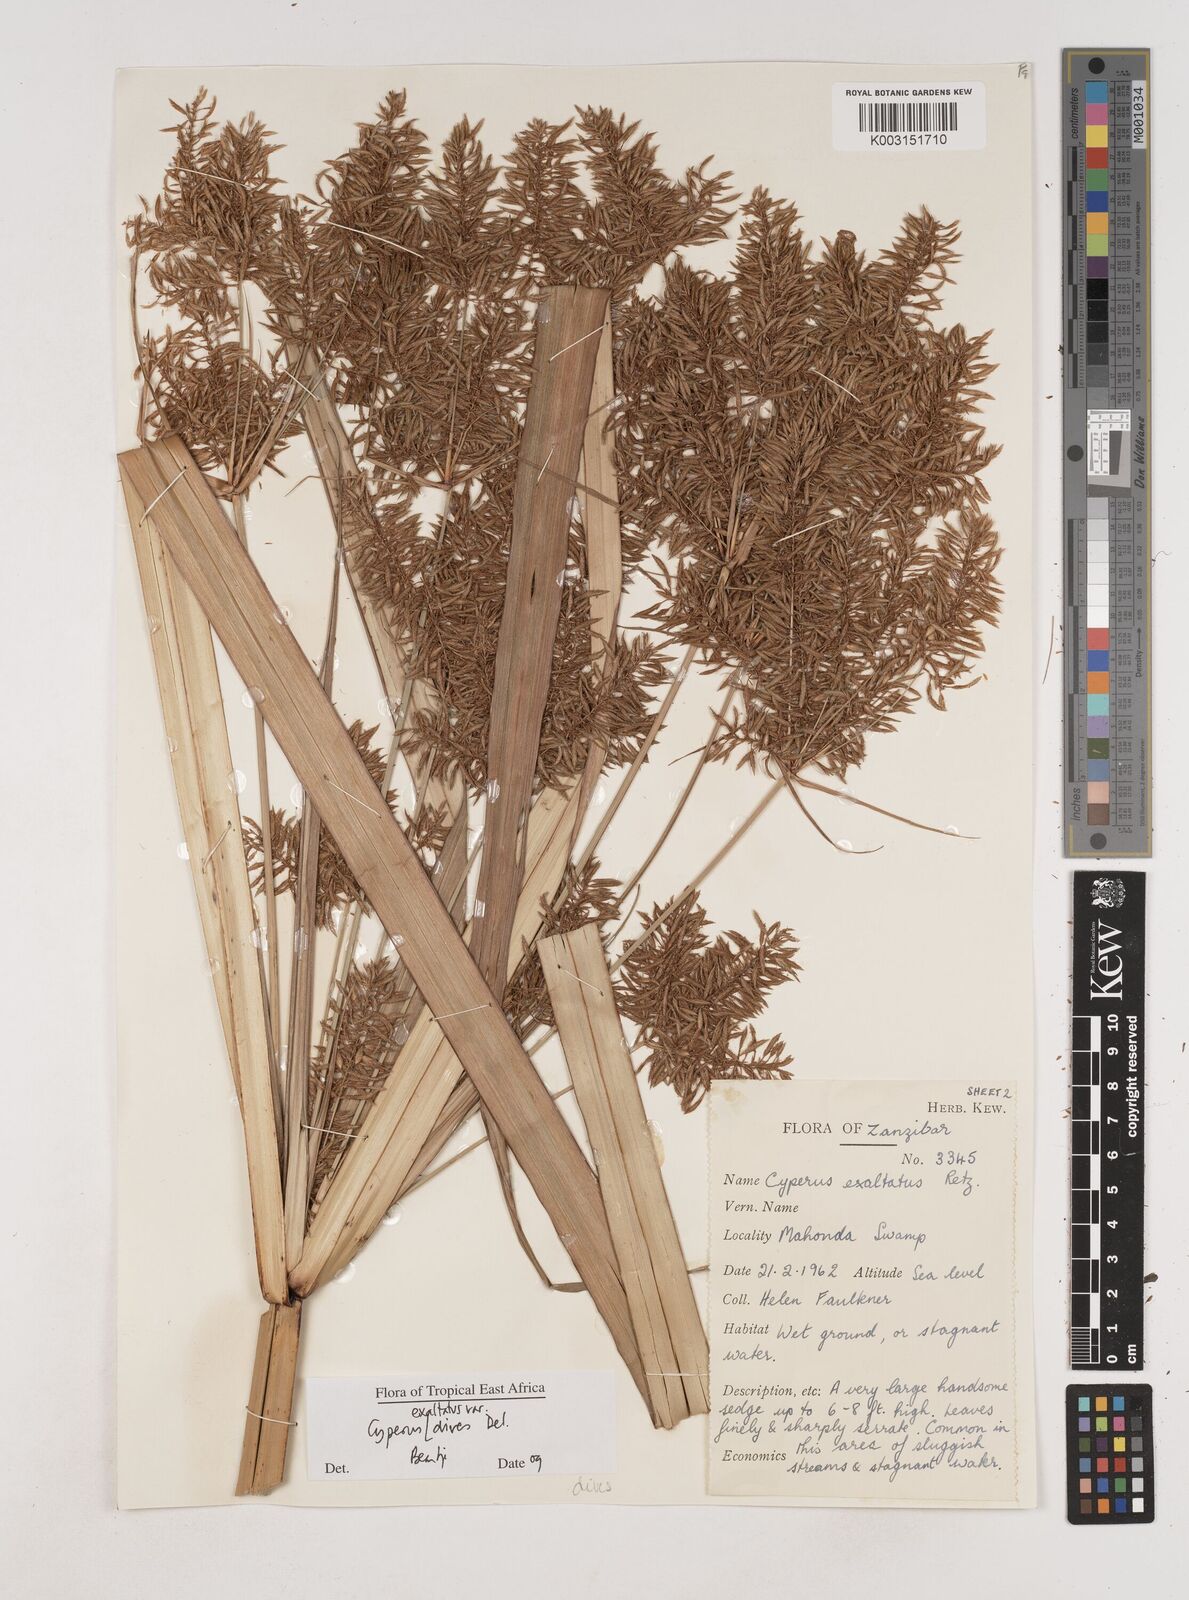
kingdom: Plantae
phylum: Tracheophyta
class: Liliopsida
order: Poales
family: Cyperaceae
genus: Cyperus
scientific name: Cyperus exaltatus
